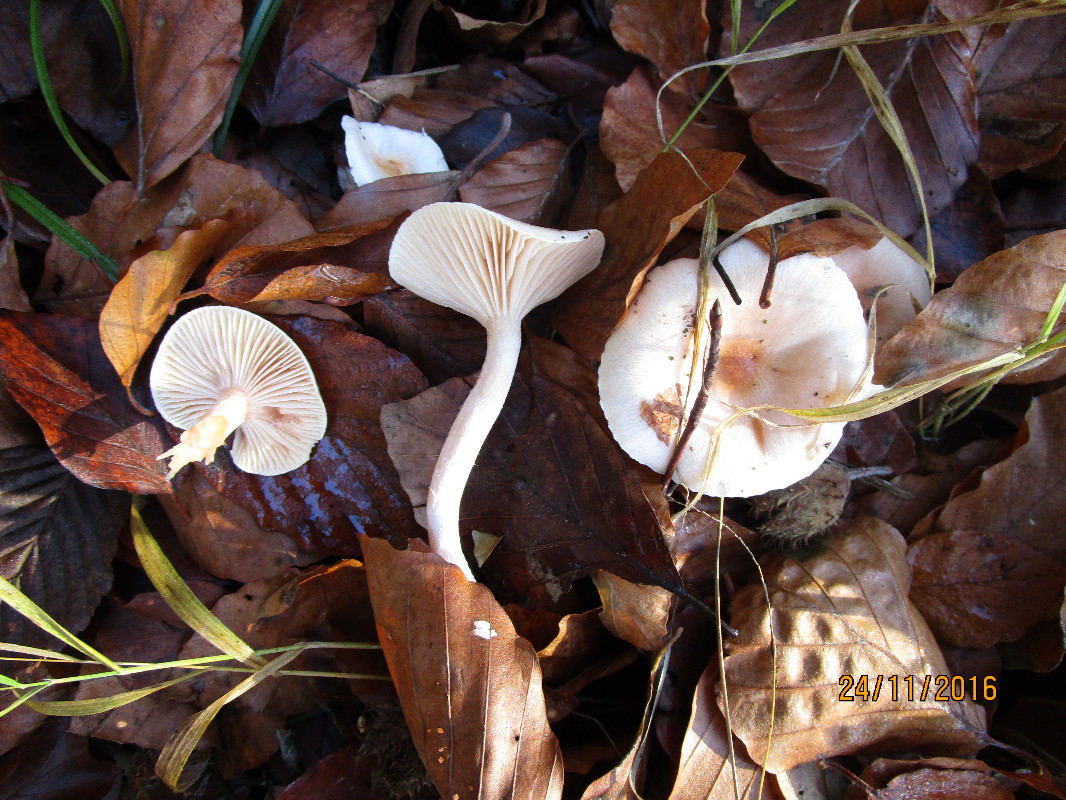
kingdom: Fungi
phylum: Basidiomycota
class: Agaricomycetes
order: Agaricales
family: Hygrophoraceae
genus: Hygrophorus
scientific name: Hygrophorus unicolor
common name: orangeøjet sneglehat
